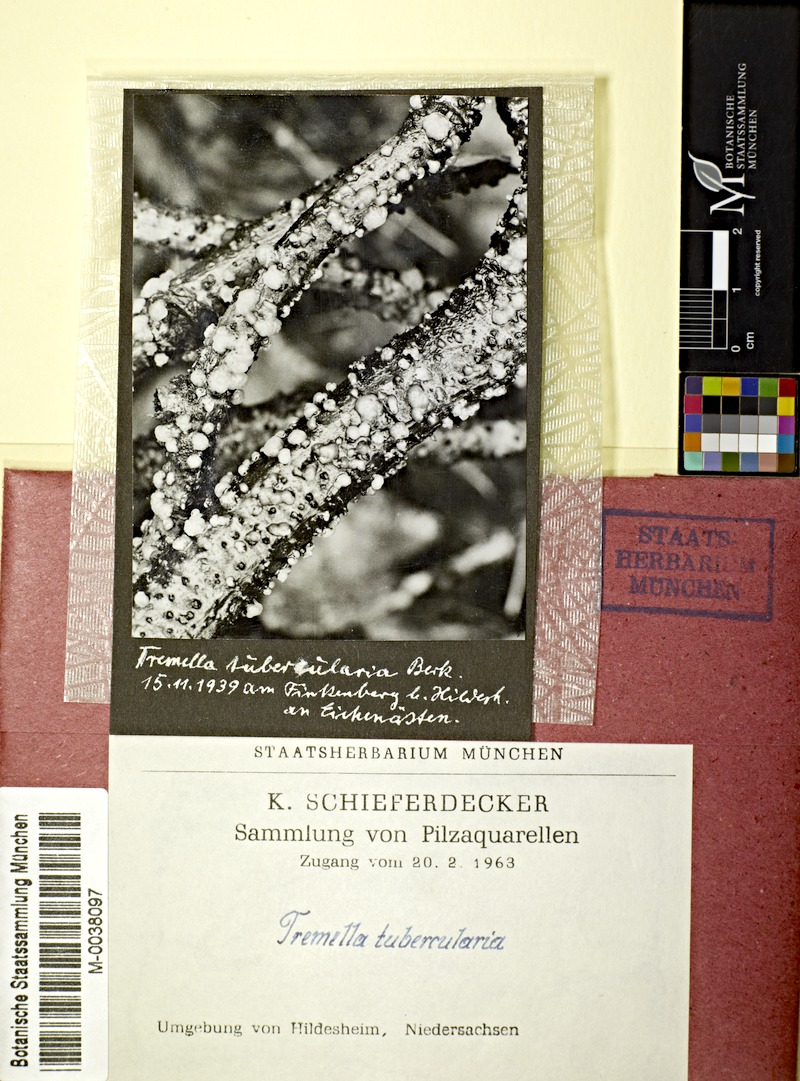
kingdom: Fungi
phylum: Ascomycota
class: Leotiomycetes
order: Helotiales
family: Gelatinodiscaceae
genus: Ascocoryne
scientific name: Ascocoryne albida
